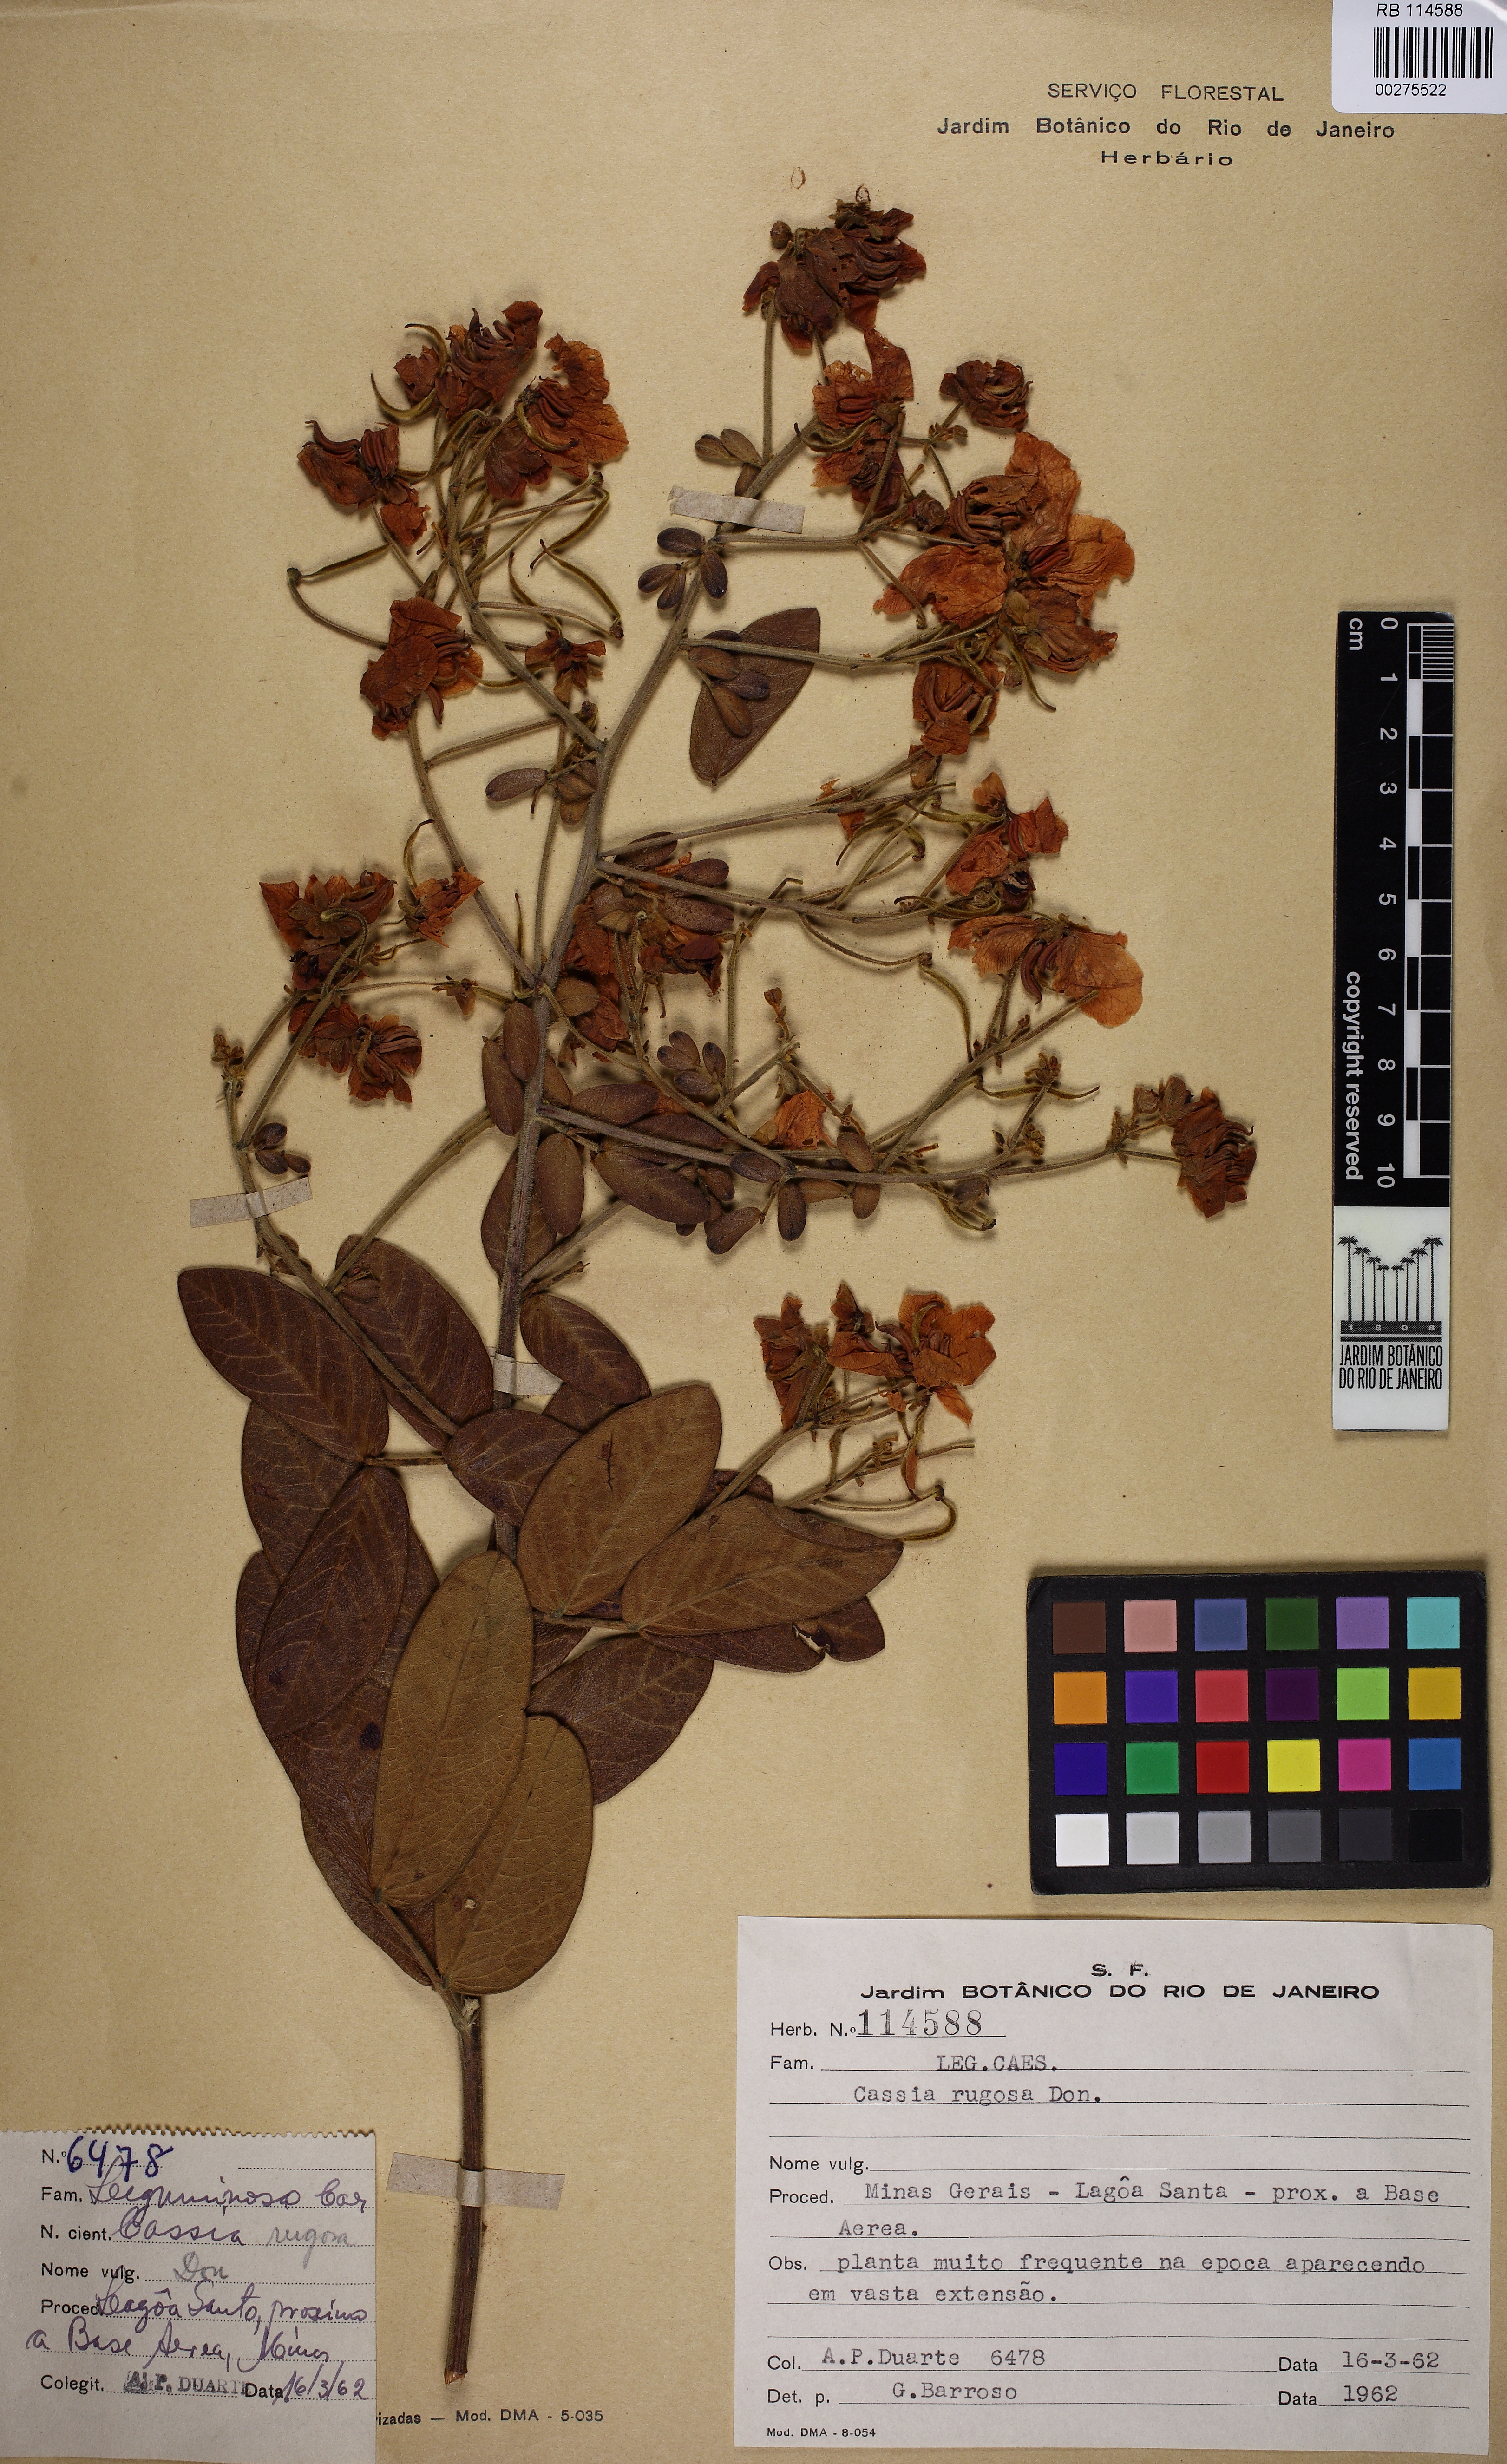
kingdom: Plantae
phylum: Tracheophyta
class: Magnoliopsida
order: Fabales
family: Fabaceae
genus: Senna
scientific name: Senna rugosa
